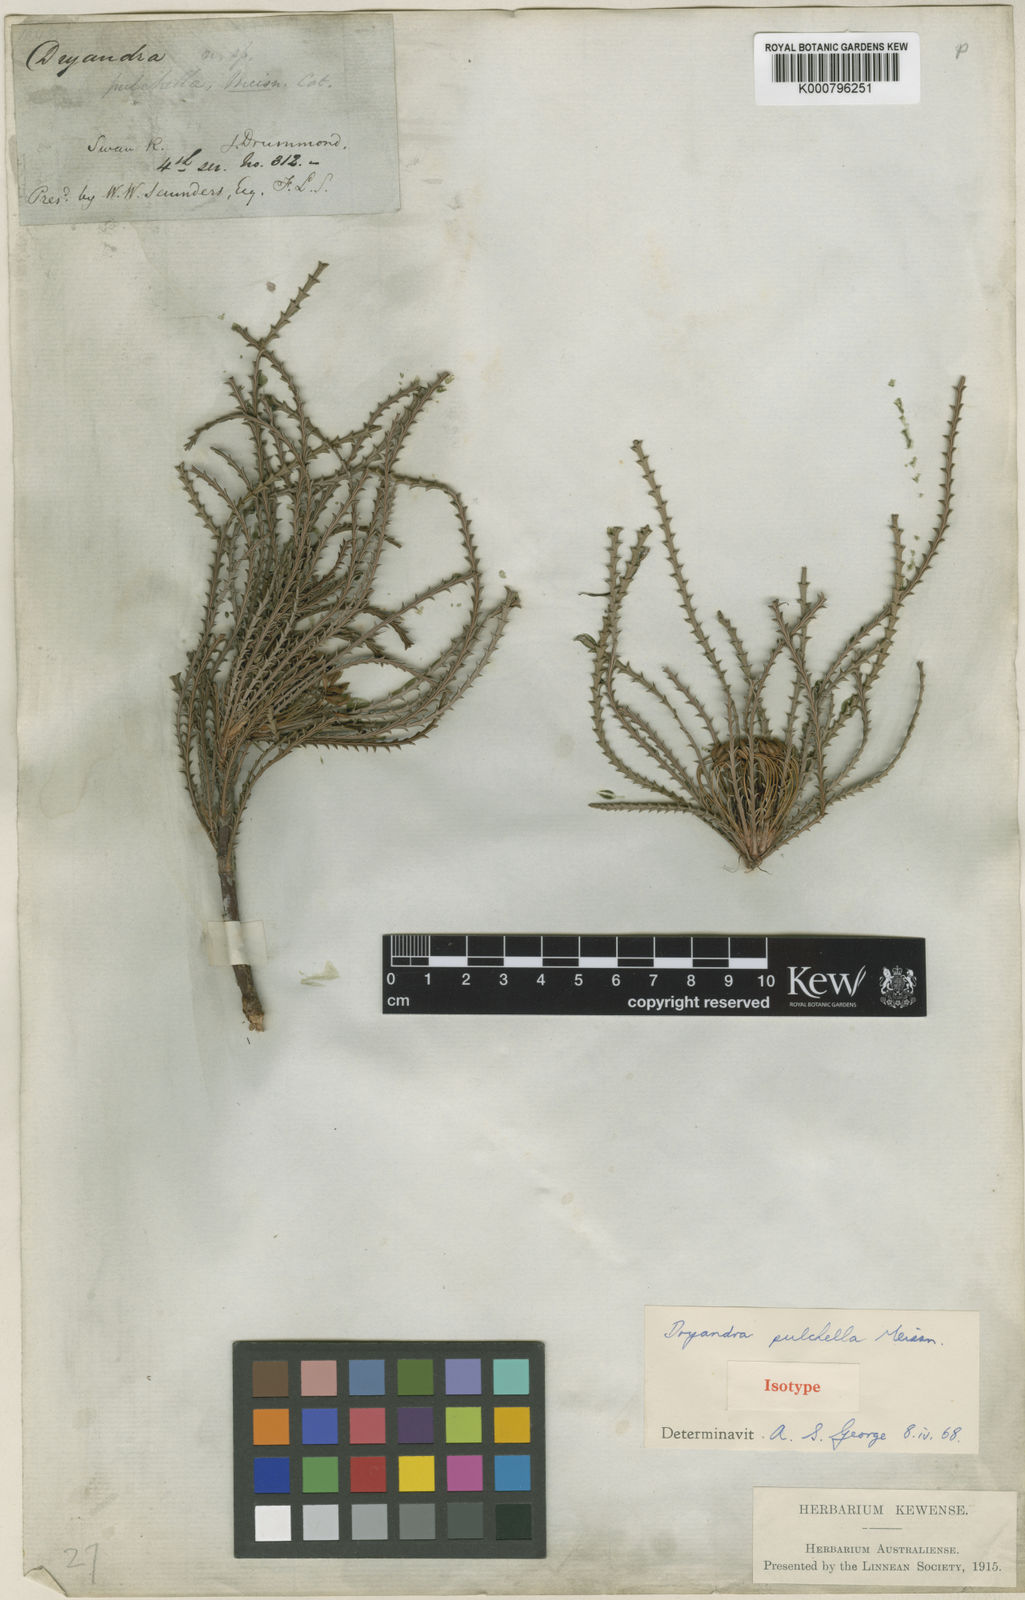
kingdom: Plantae
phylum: Tracheophyta
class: Magnoliopsida
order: Proteales
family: Proteaceae
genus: Banksia
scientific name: Banksia bella
